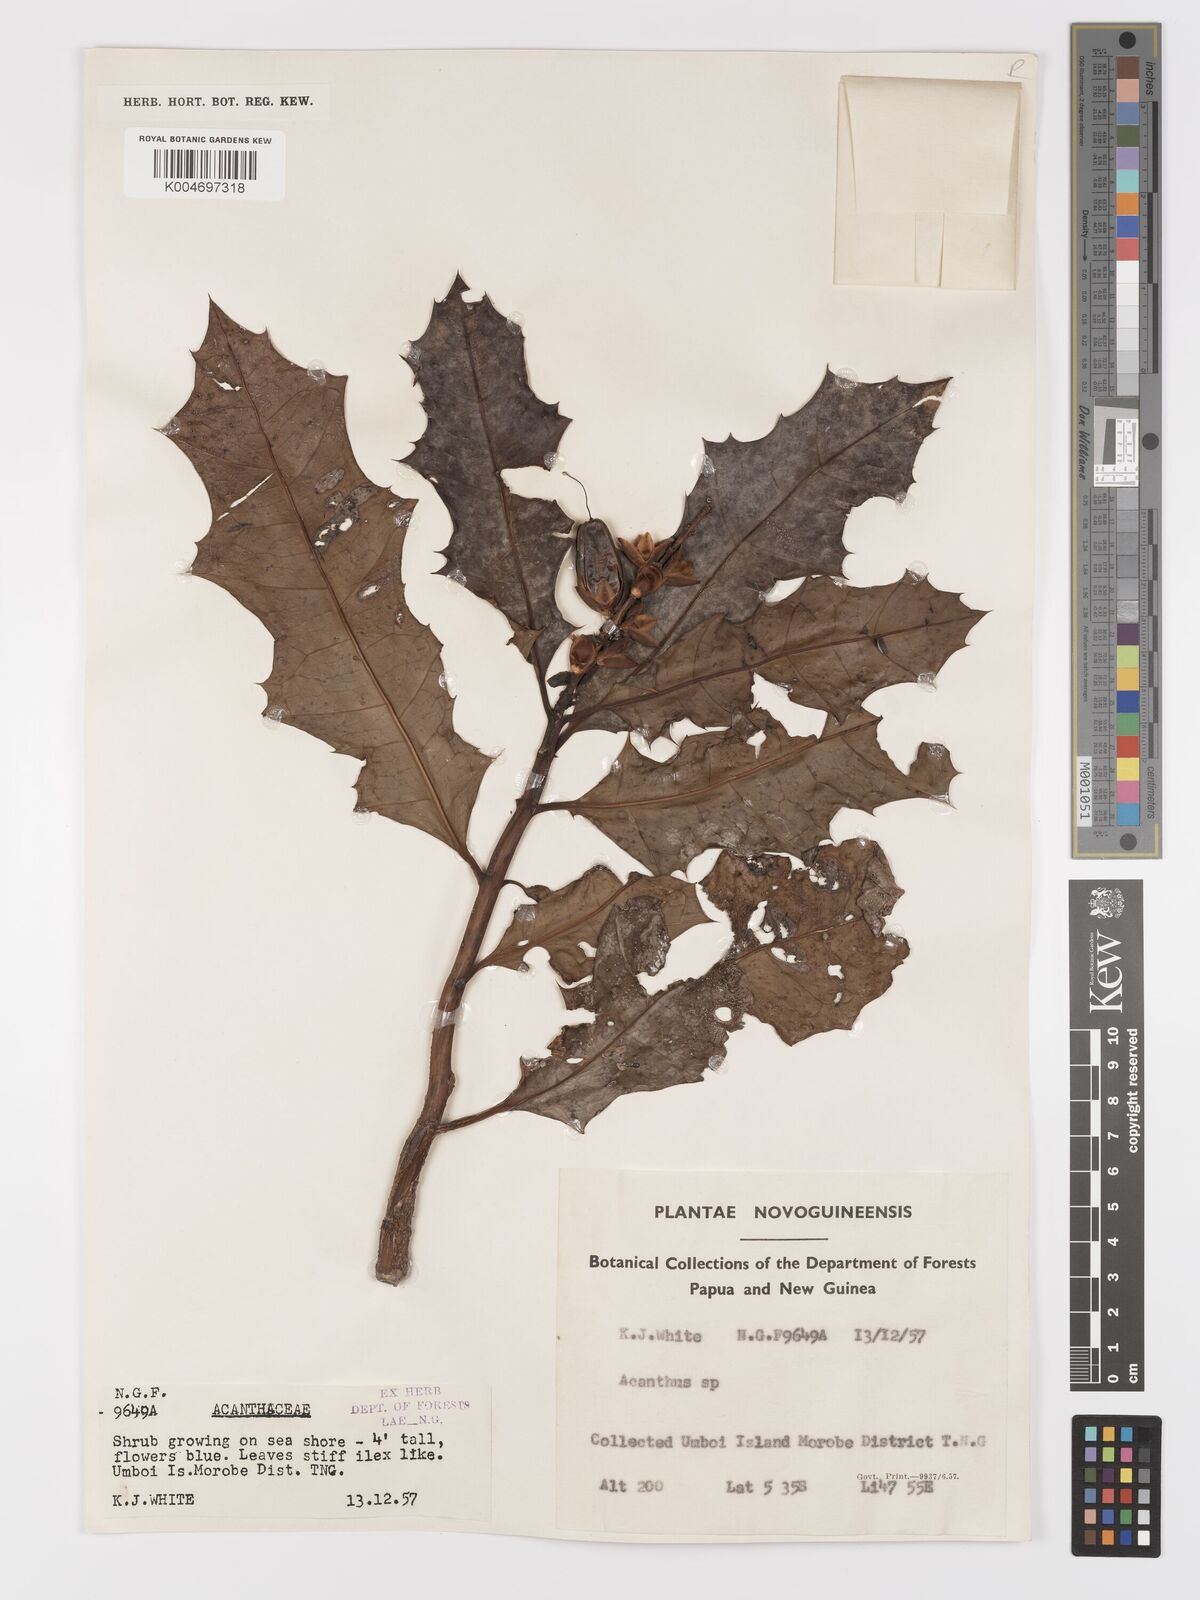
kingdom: Plantae
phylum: Tracheophyta
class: Magnoliopsida
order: Lamiales
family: Acanthaceae
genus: Acanthus
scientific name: Acanthus
